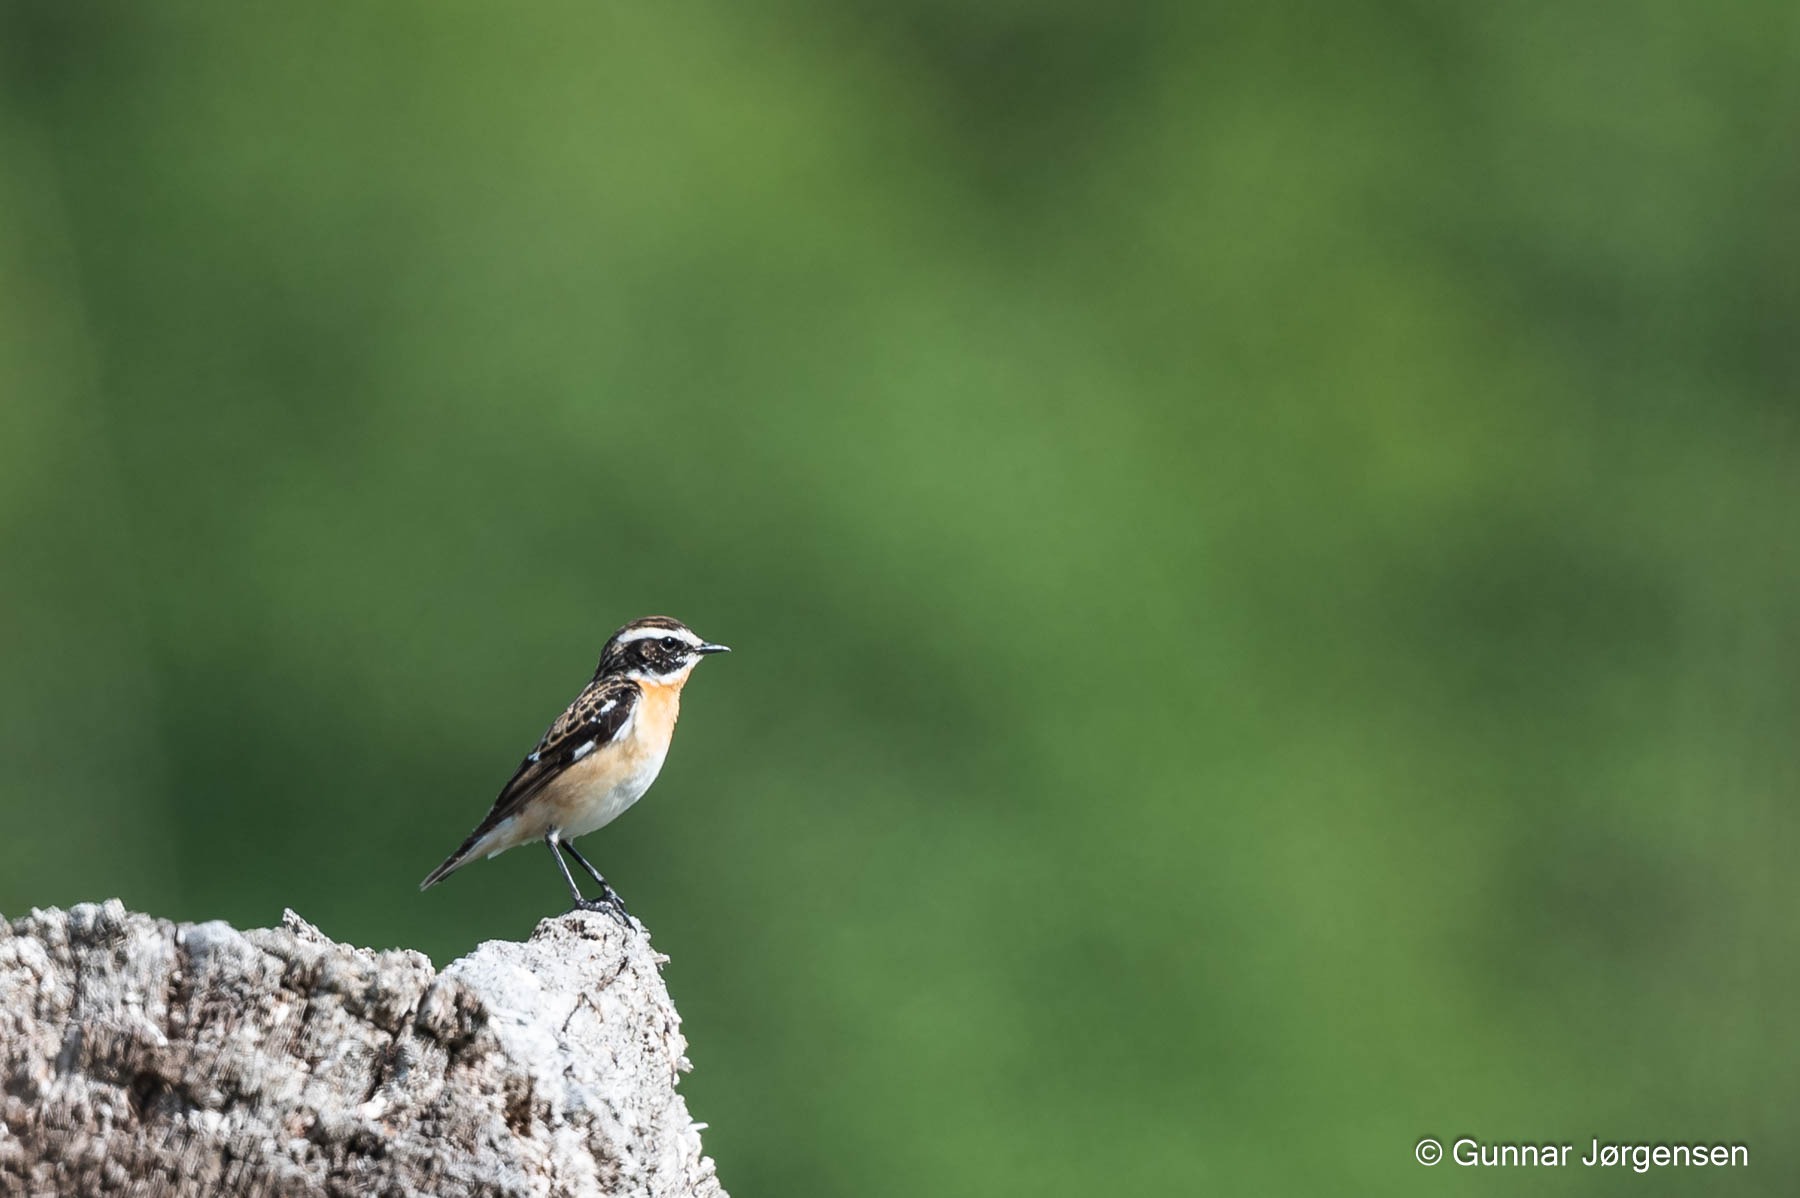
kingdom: Animalia
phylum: Chordata
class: Aves
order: Passeriformes
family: Muscicapidae
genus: Saxicola
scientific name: Saxicola rubetra
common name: Bynkefugl
